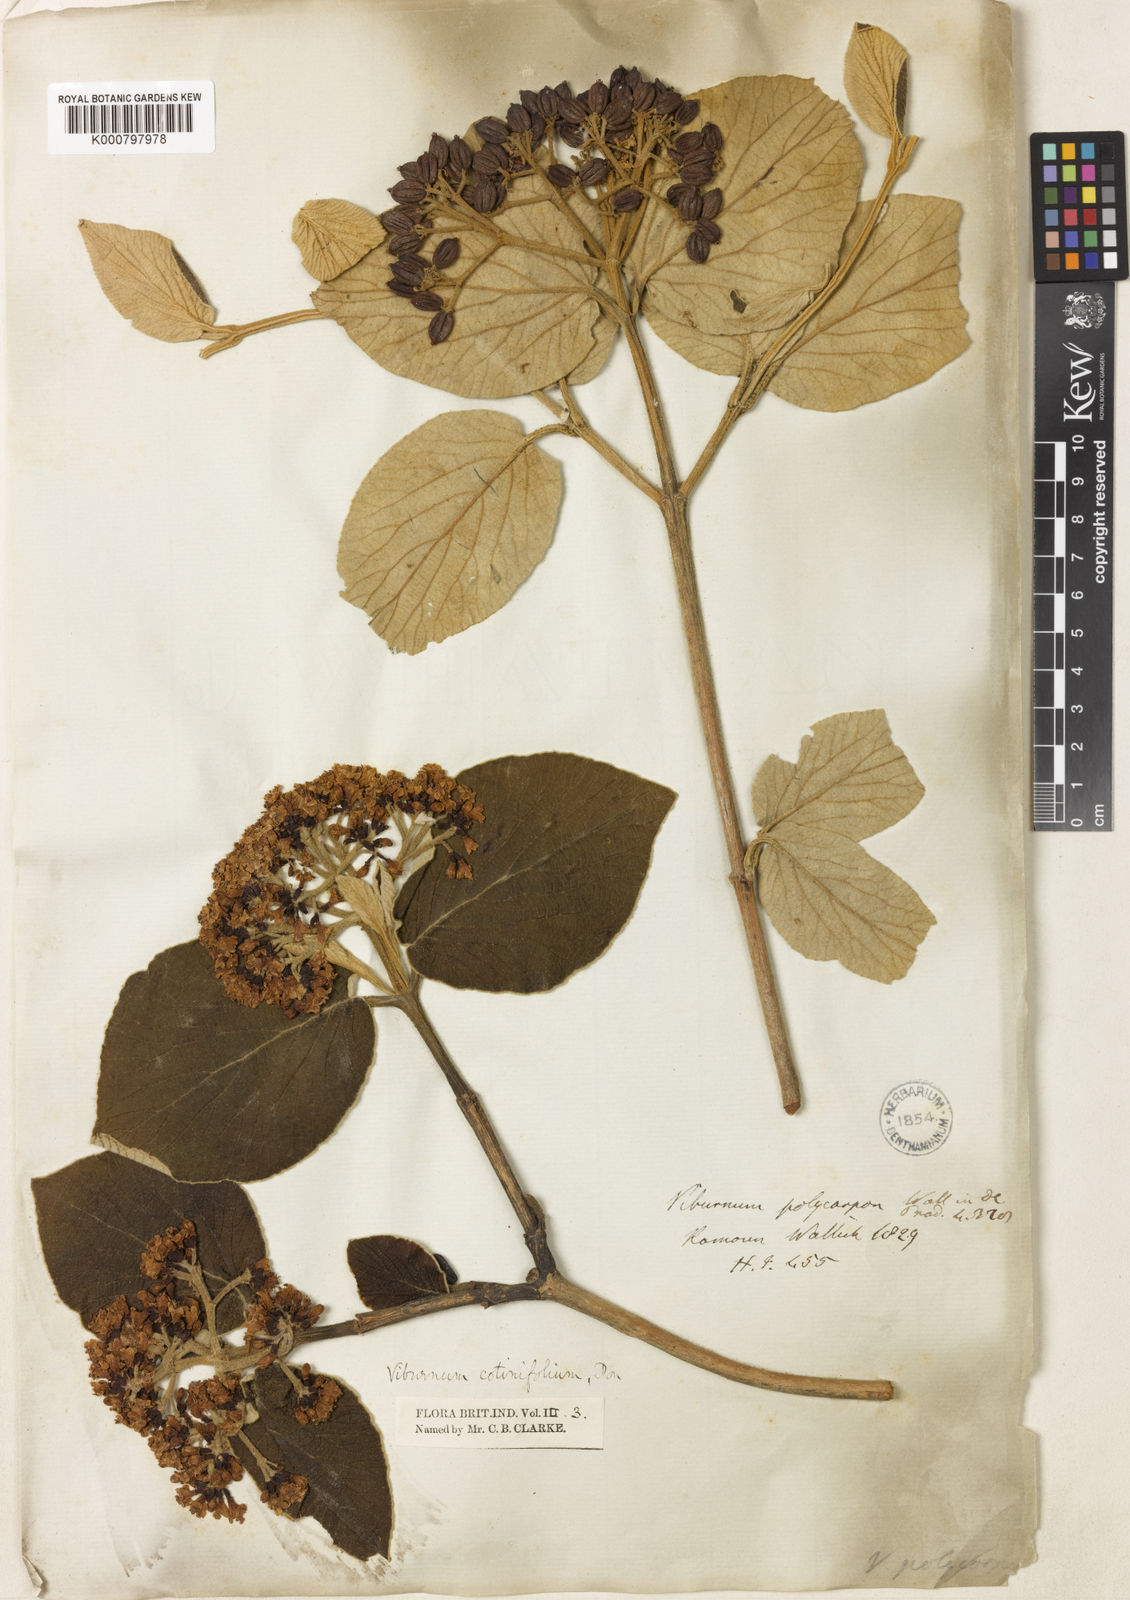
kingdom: Plantae
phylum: Tracheophyta
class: Magnoliopsida
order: Dipsacales
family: Viburnaceae
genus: Viburnum
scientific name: Viburnum cotinifolium
